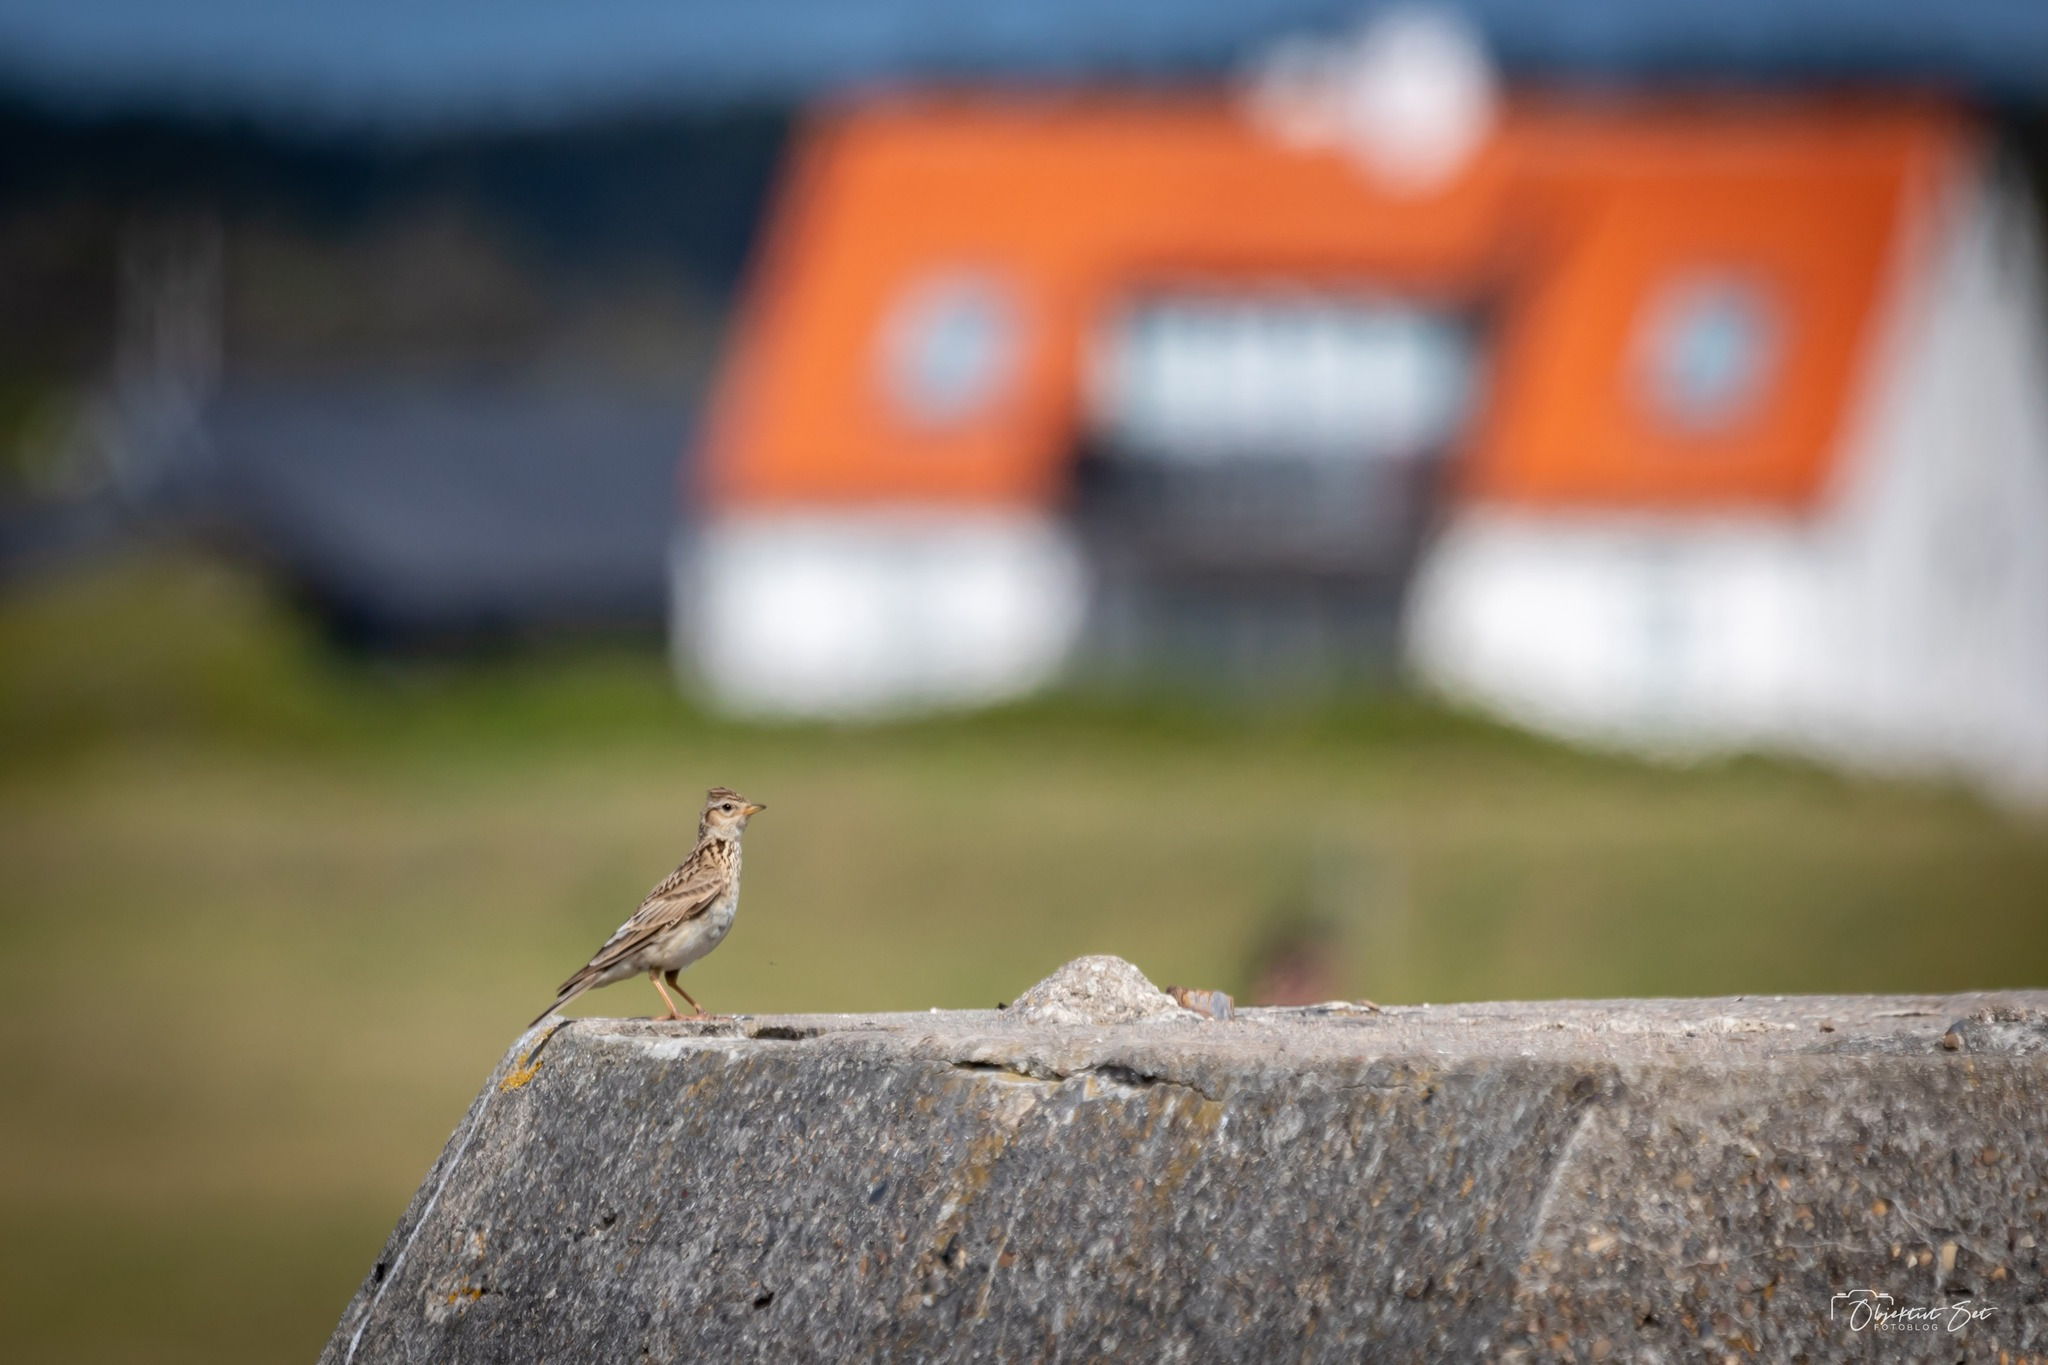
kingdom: Animalia
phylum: Chordata
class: Aves
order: Passeriformes
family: Alaudidae
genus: Alauda
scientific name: Alauda arvensis
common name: Sanglærke
